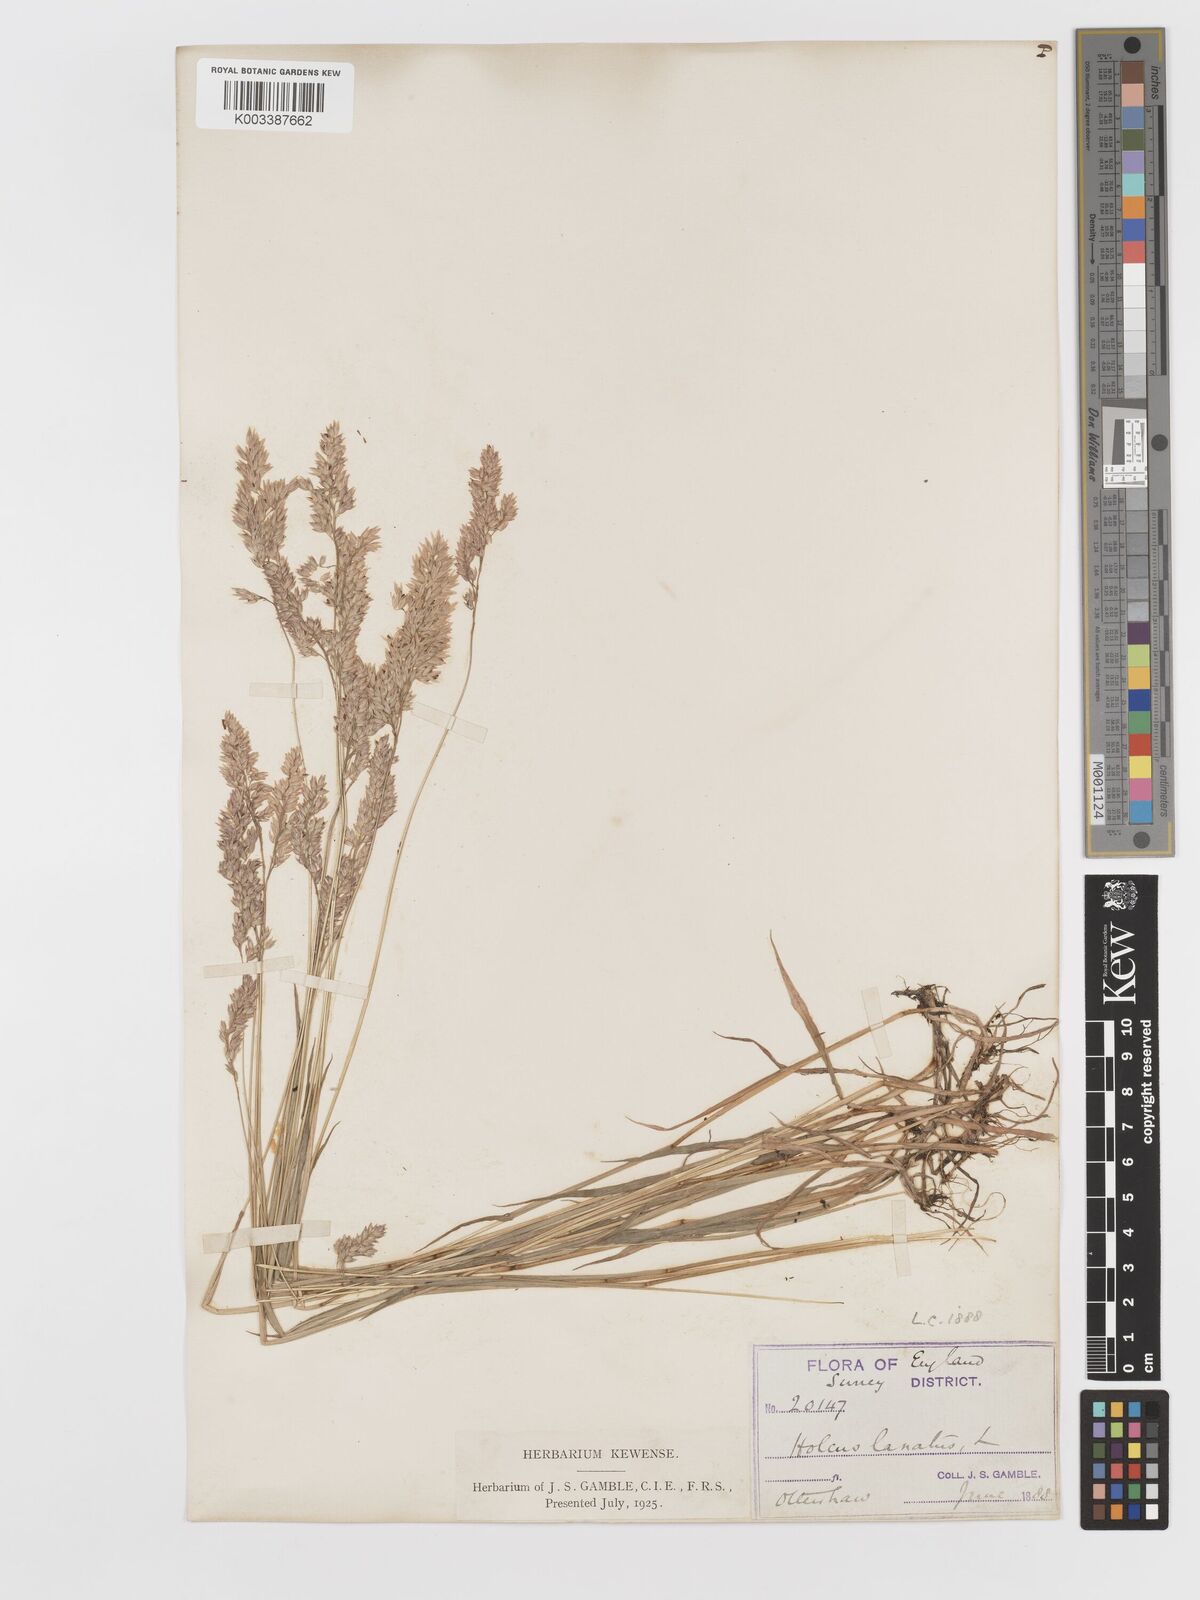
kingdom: Plantae
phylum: Tracheophyta
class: Liliopsida
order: Poales
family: Poaceae
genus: Holcus
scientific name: Holcus lanatus
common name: Yorkshire-fog
